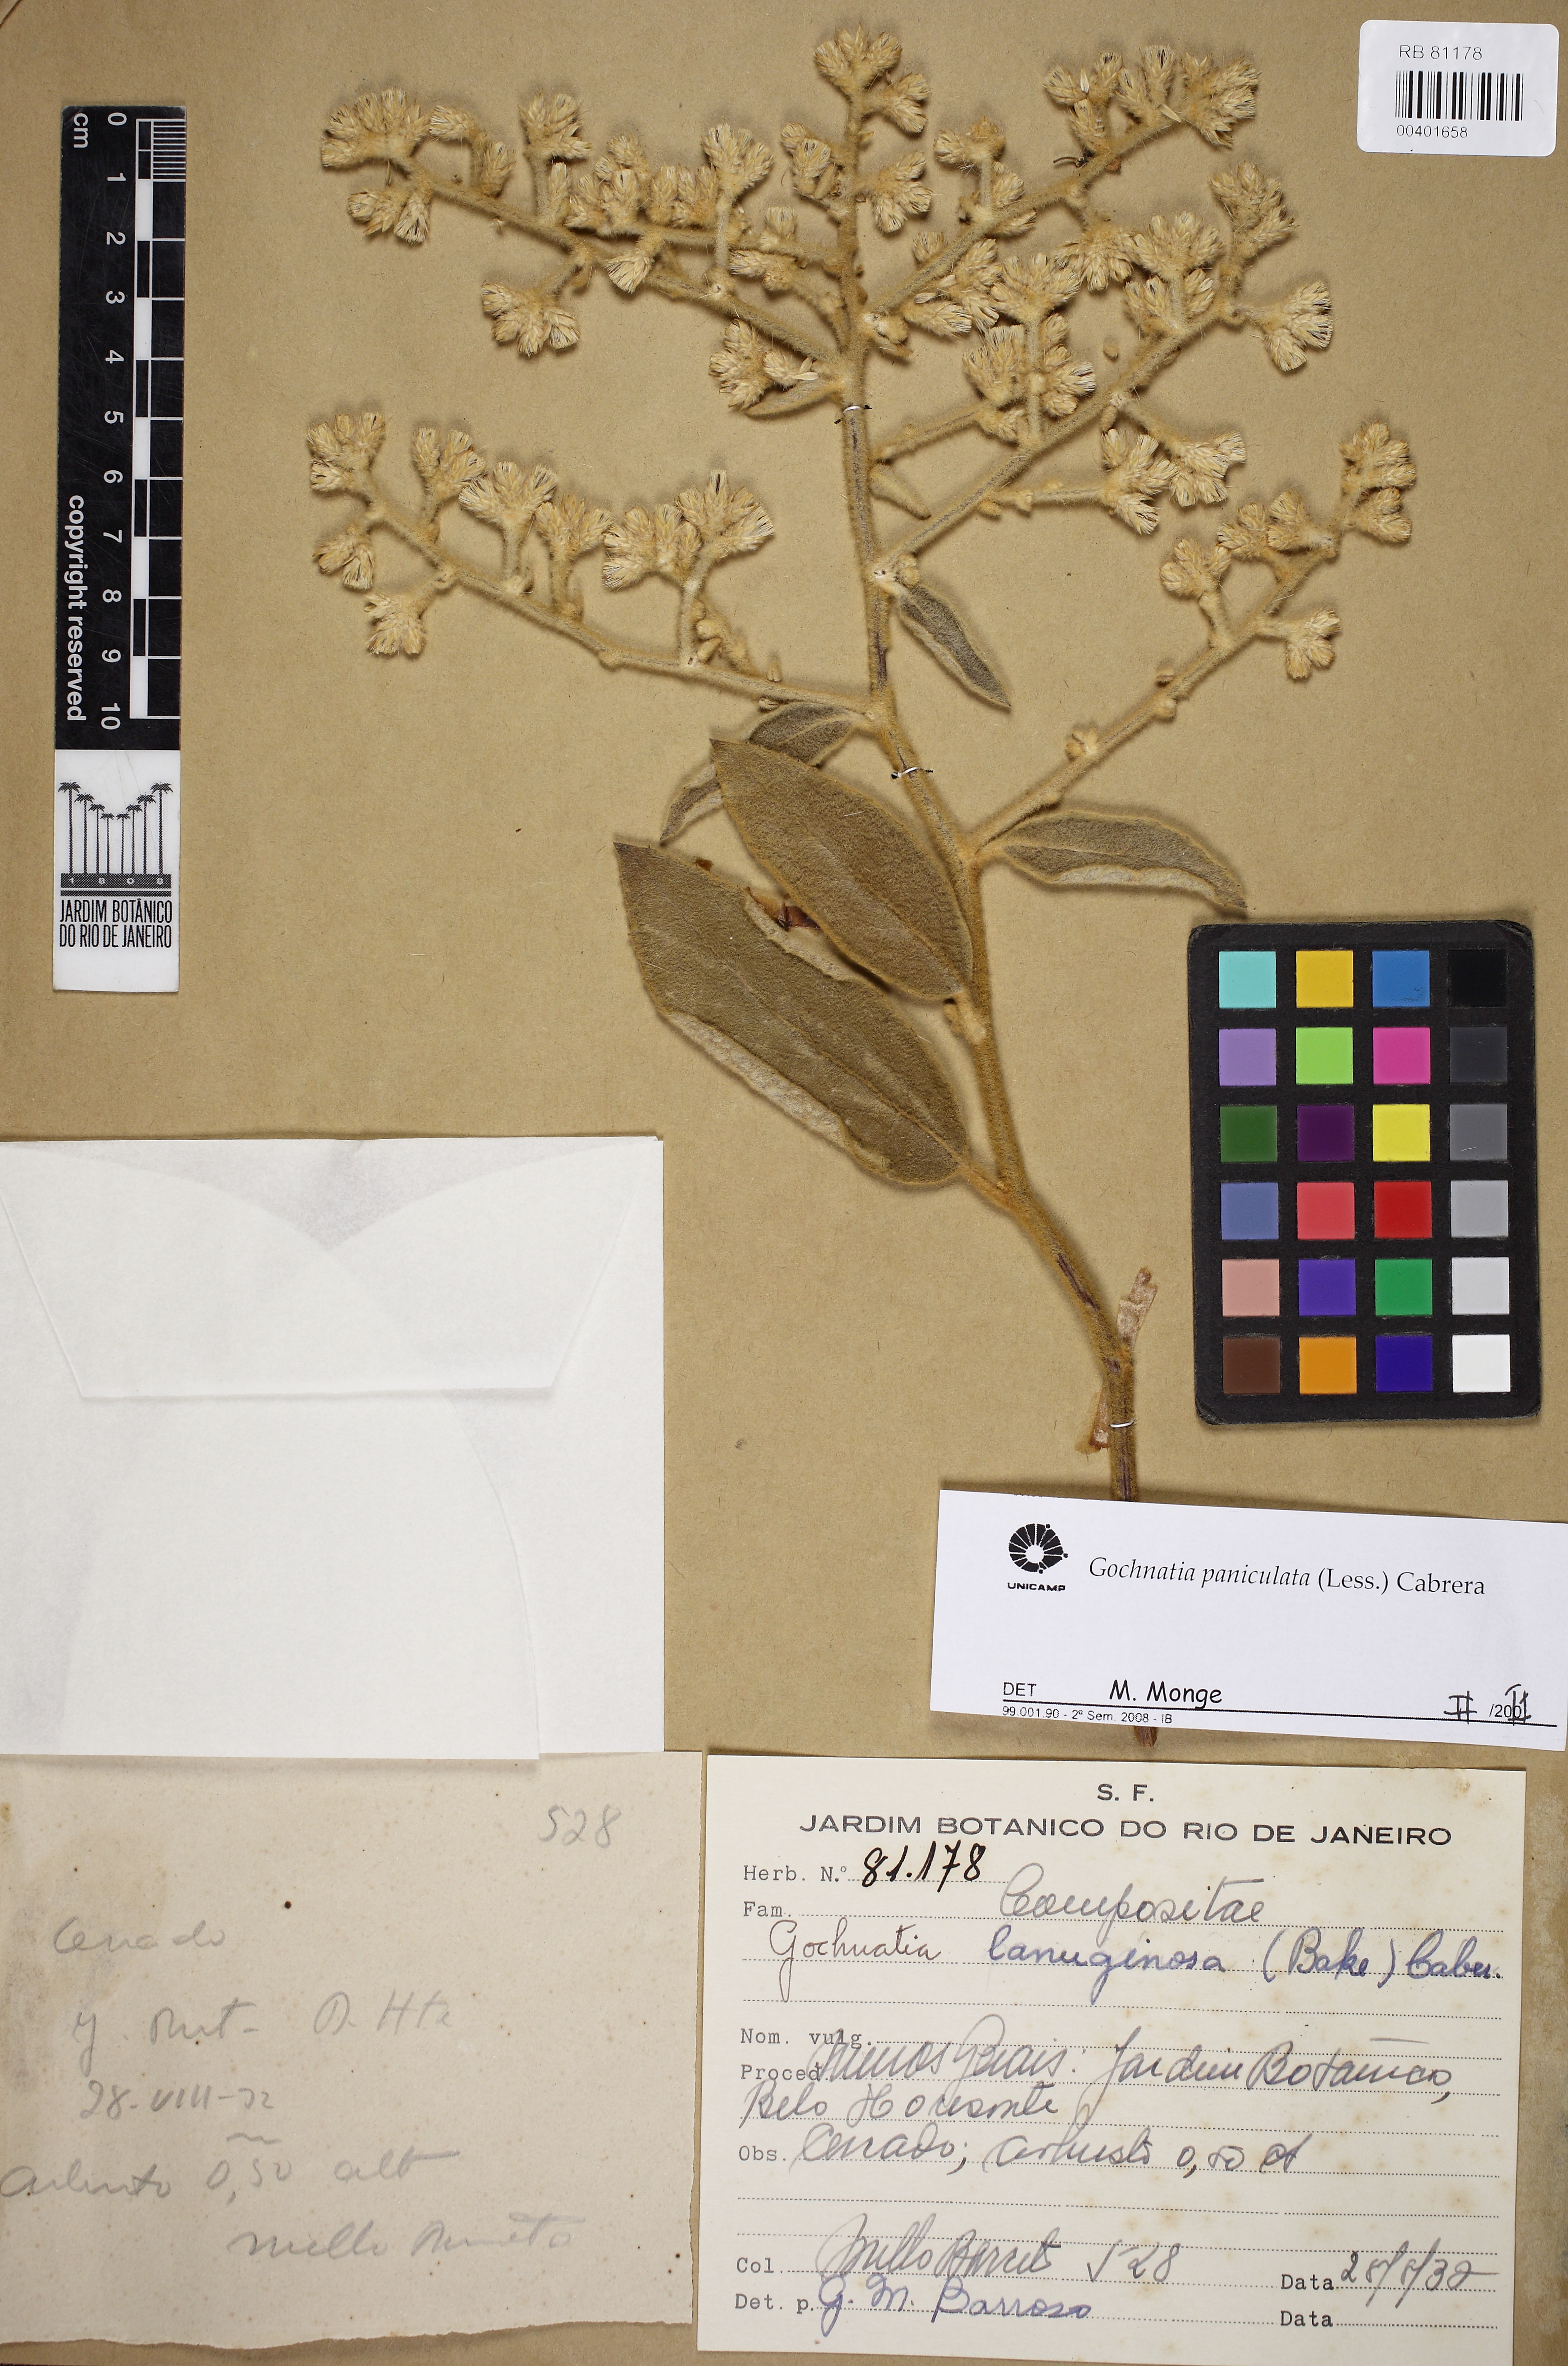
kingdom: Plantae
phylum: Tracheophyta
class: Magnoliopsida
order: Asterales
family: Asteraceae
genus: Moquiniastrum
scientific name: Moquiniastrum paniculatum
